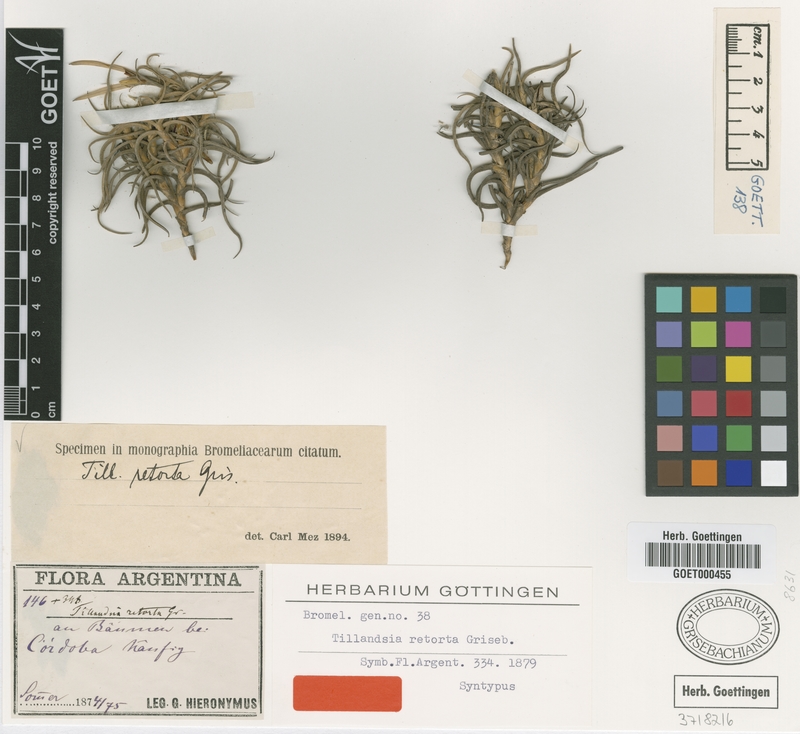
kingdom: Plantae
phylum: Tracheophyta
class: Liliopsida
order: Poales
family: Bromeliaceae
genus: Tillandsia
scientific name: Tillandsia retorta
